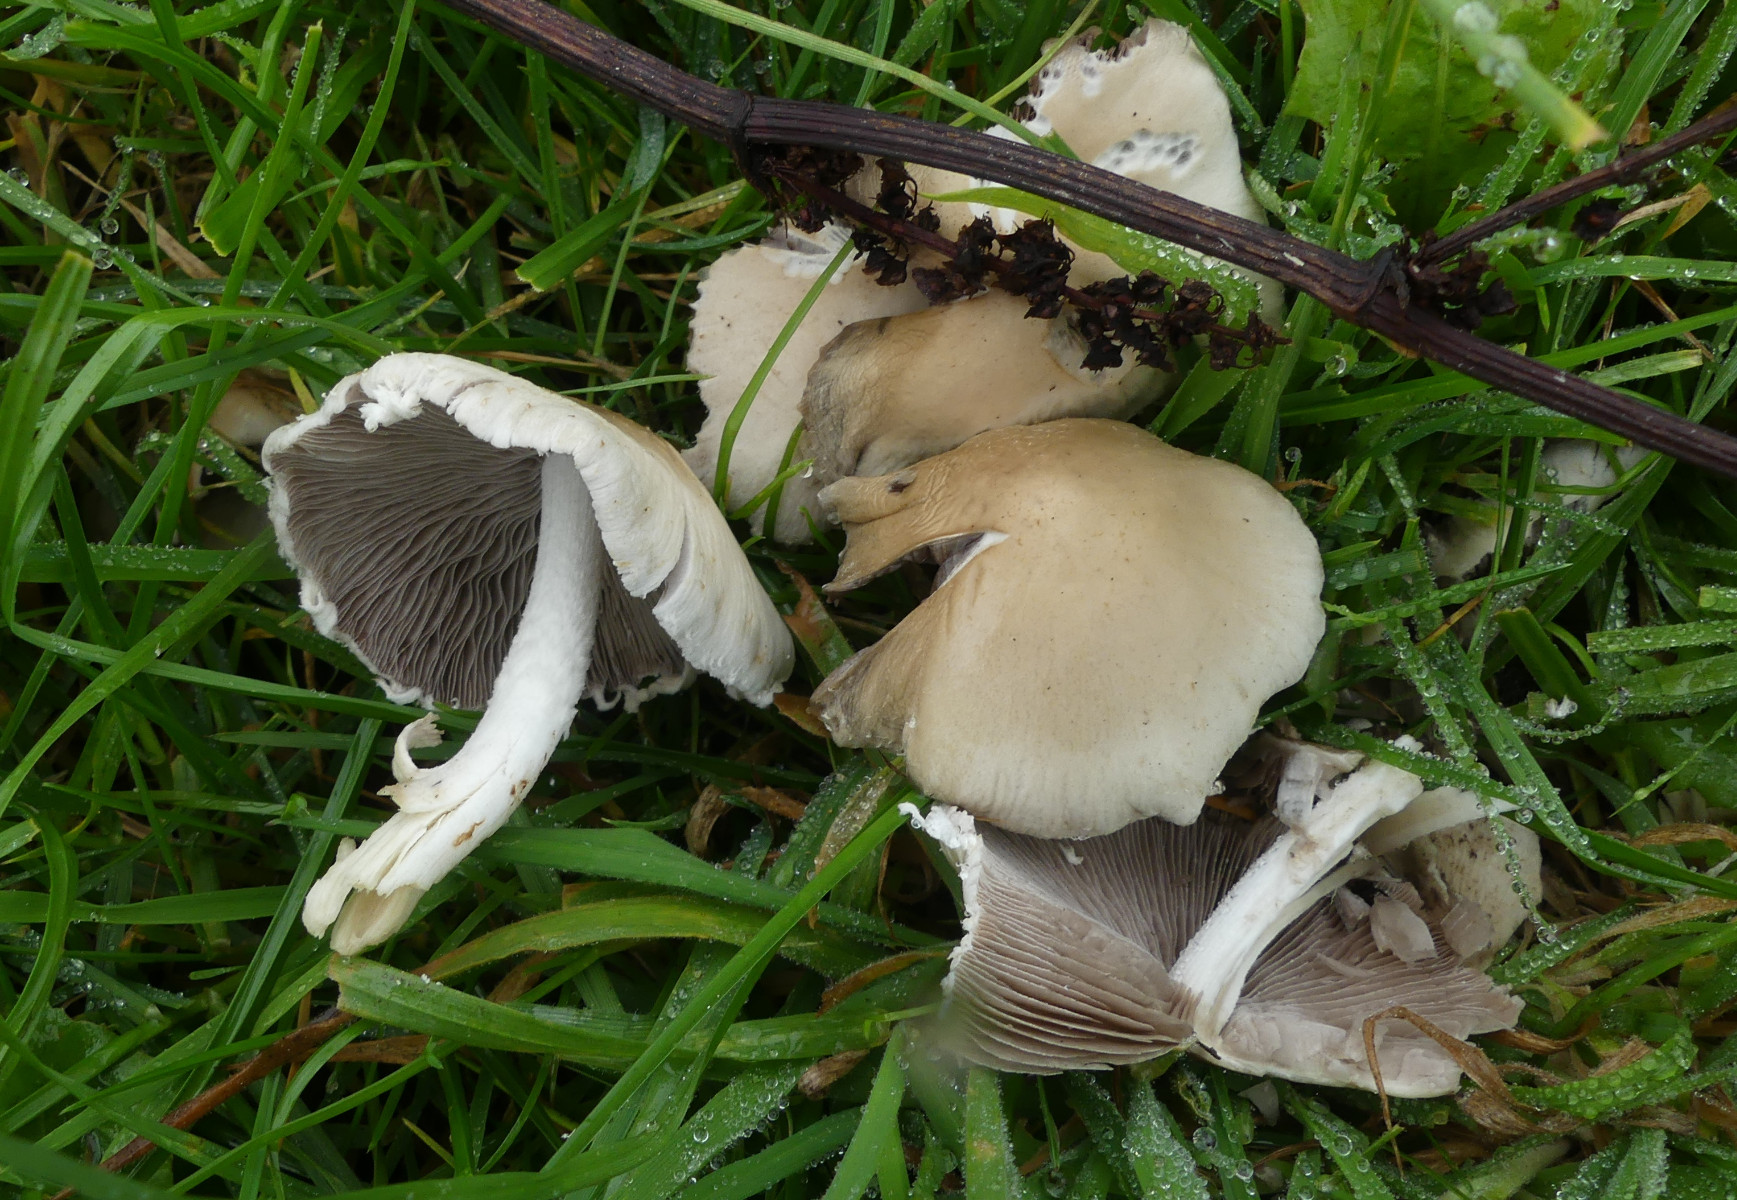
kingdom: Fungi
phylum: Basidiomycota
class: Agaricomycetes
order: Agaricales
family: Psathyrellaceae
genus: Candolleomyces
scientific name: Candolleomyces candolleanus
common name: Candolles mørkhat
